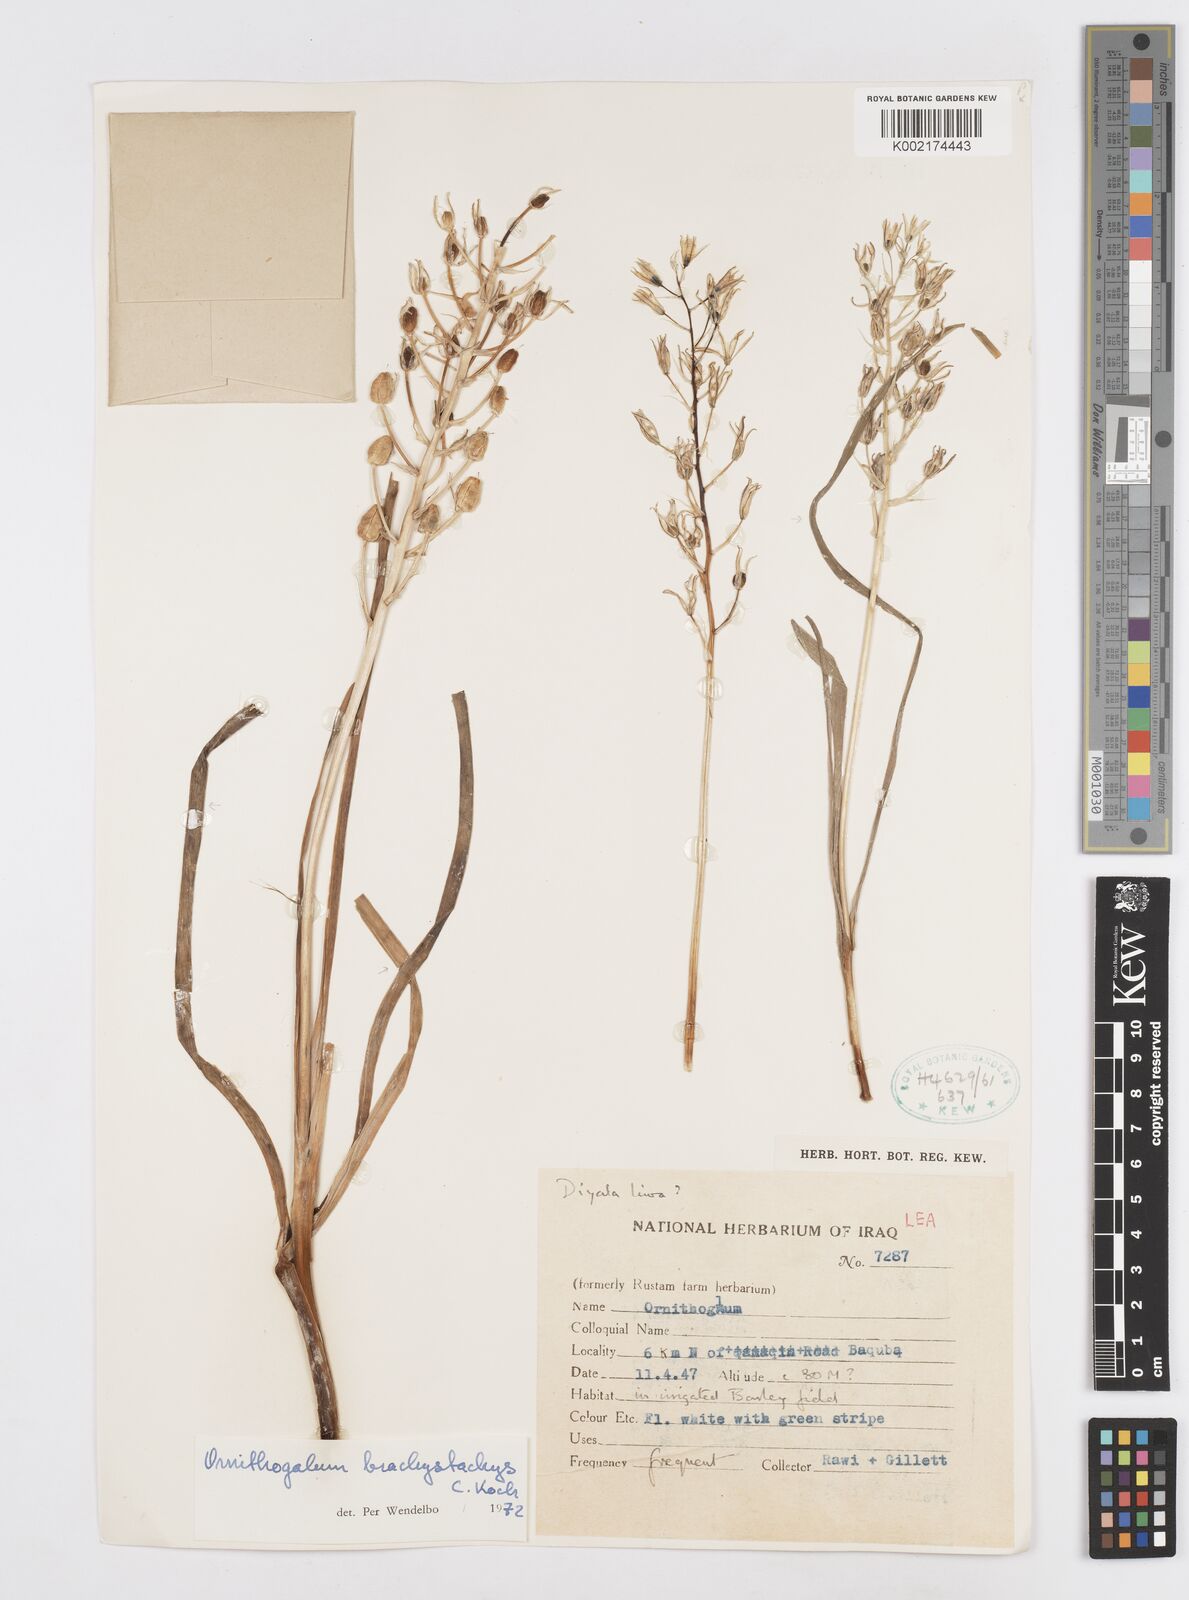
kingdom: Plantae
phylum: Tracheophyta
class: Liliopsida
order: Asparagales
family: Asparagaceae
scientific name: Asparagaceae
